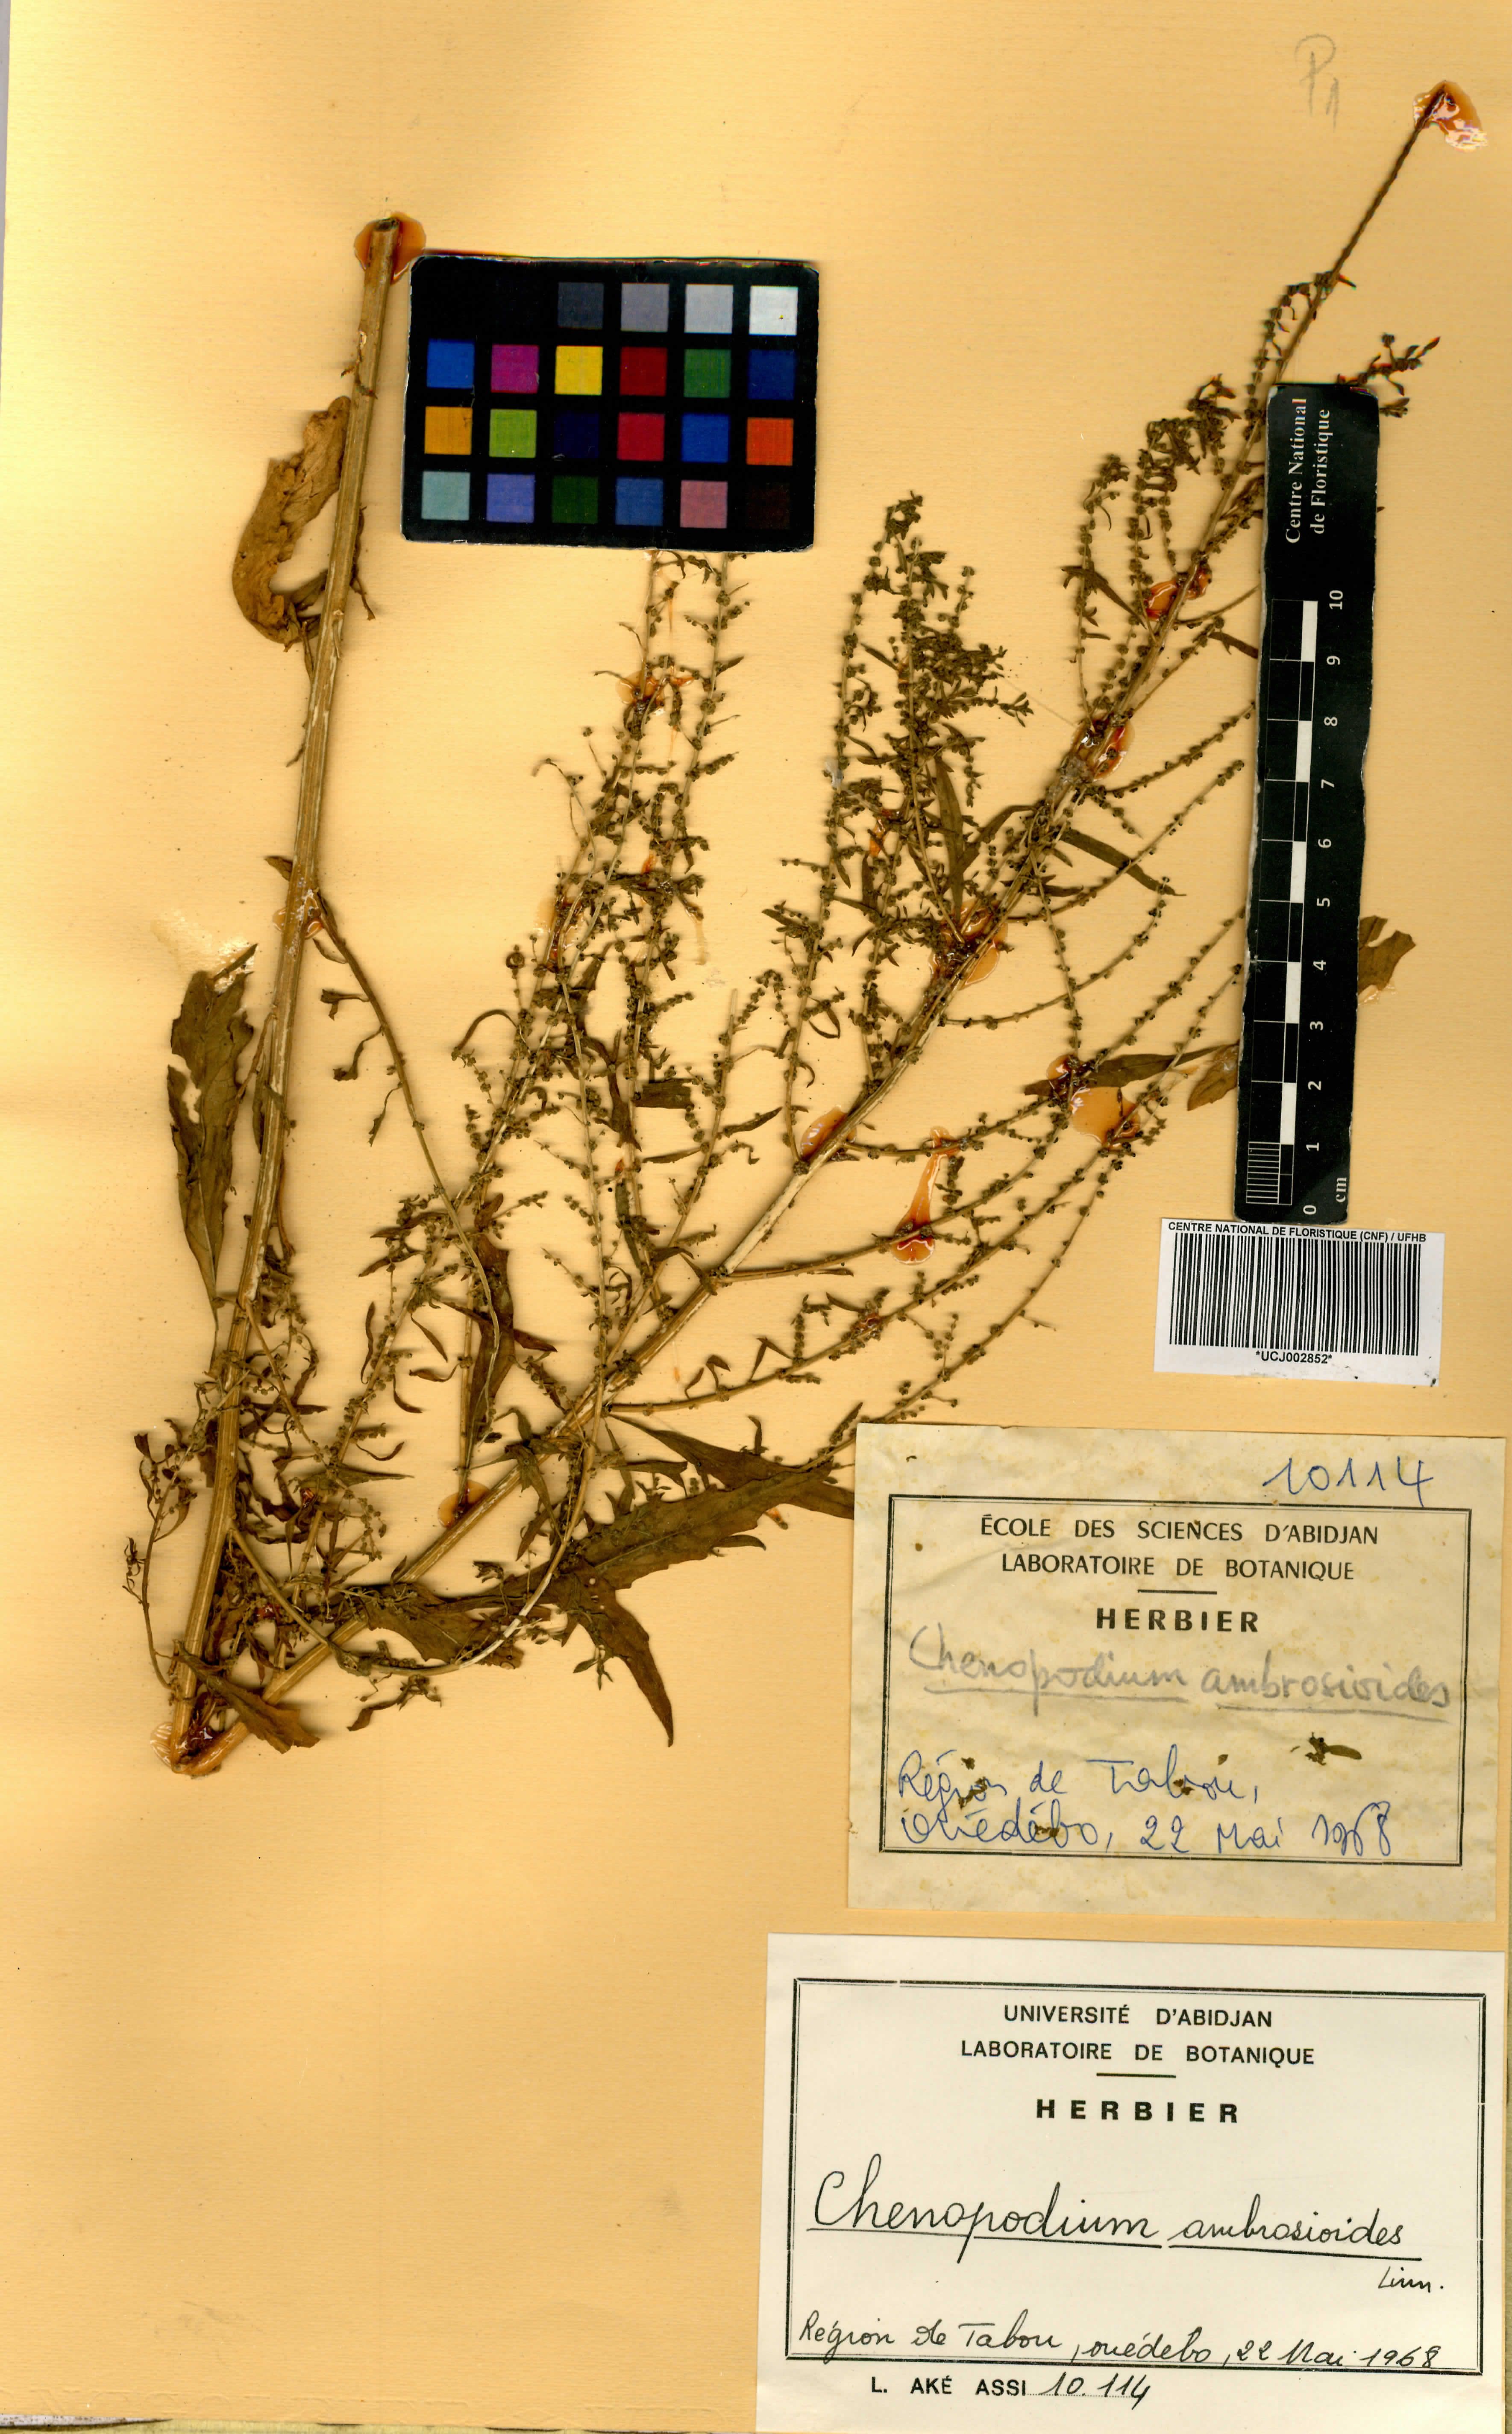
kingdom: Plantae
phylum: Tracheophyta
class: Magnoliopsida
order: Caryophyllales
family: Amaranthaceae
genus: Dysphania
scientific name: Dysphania ambrosioides
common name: Wormseed
